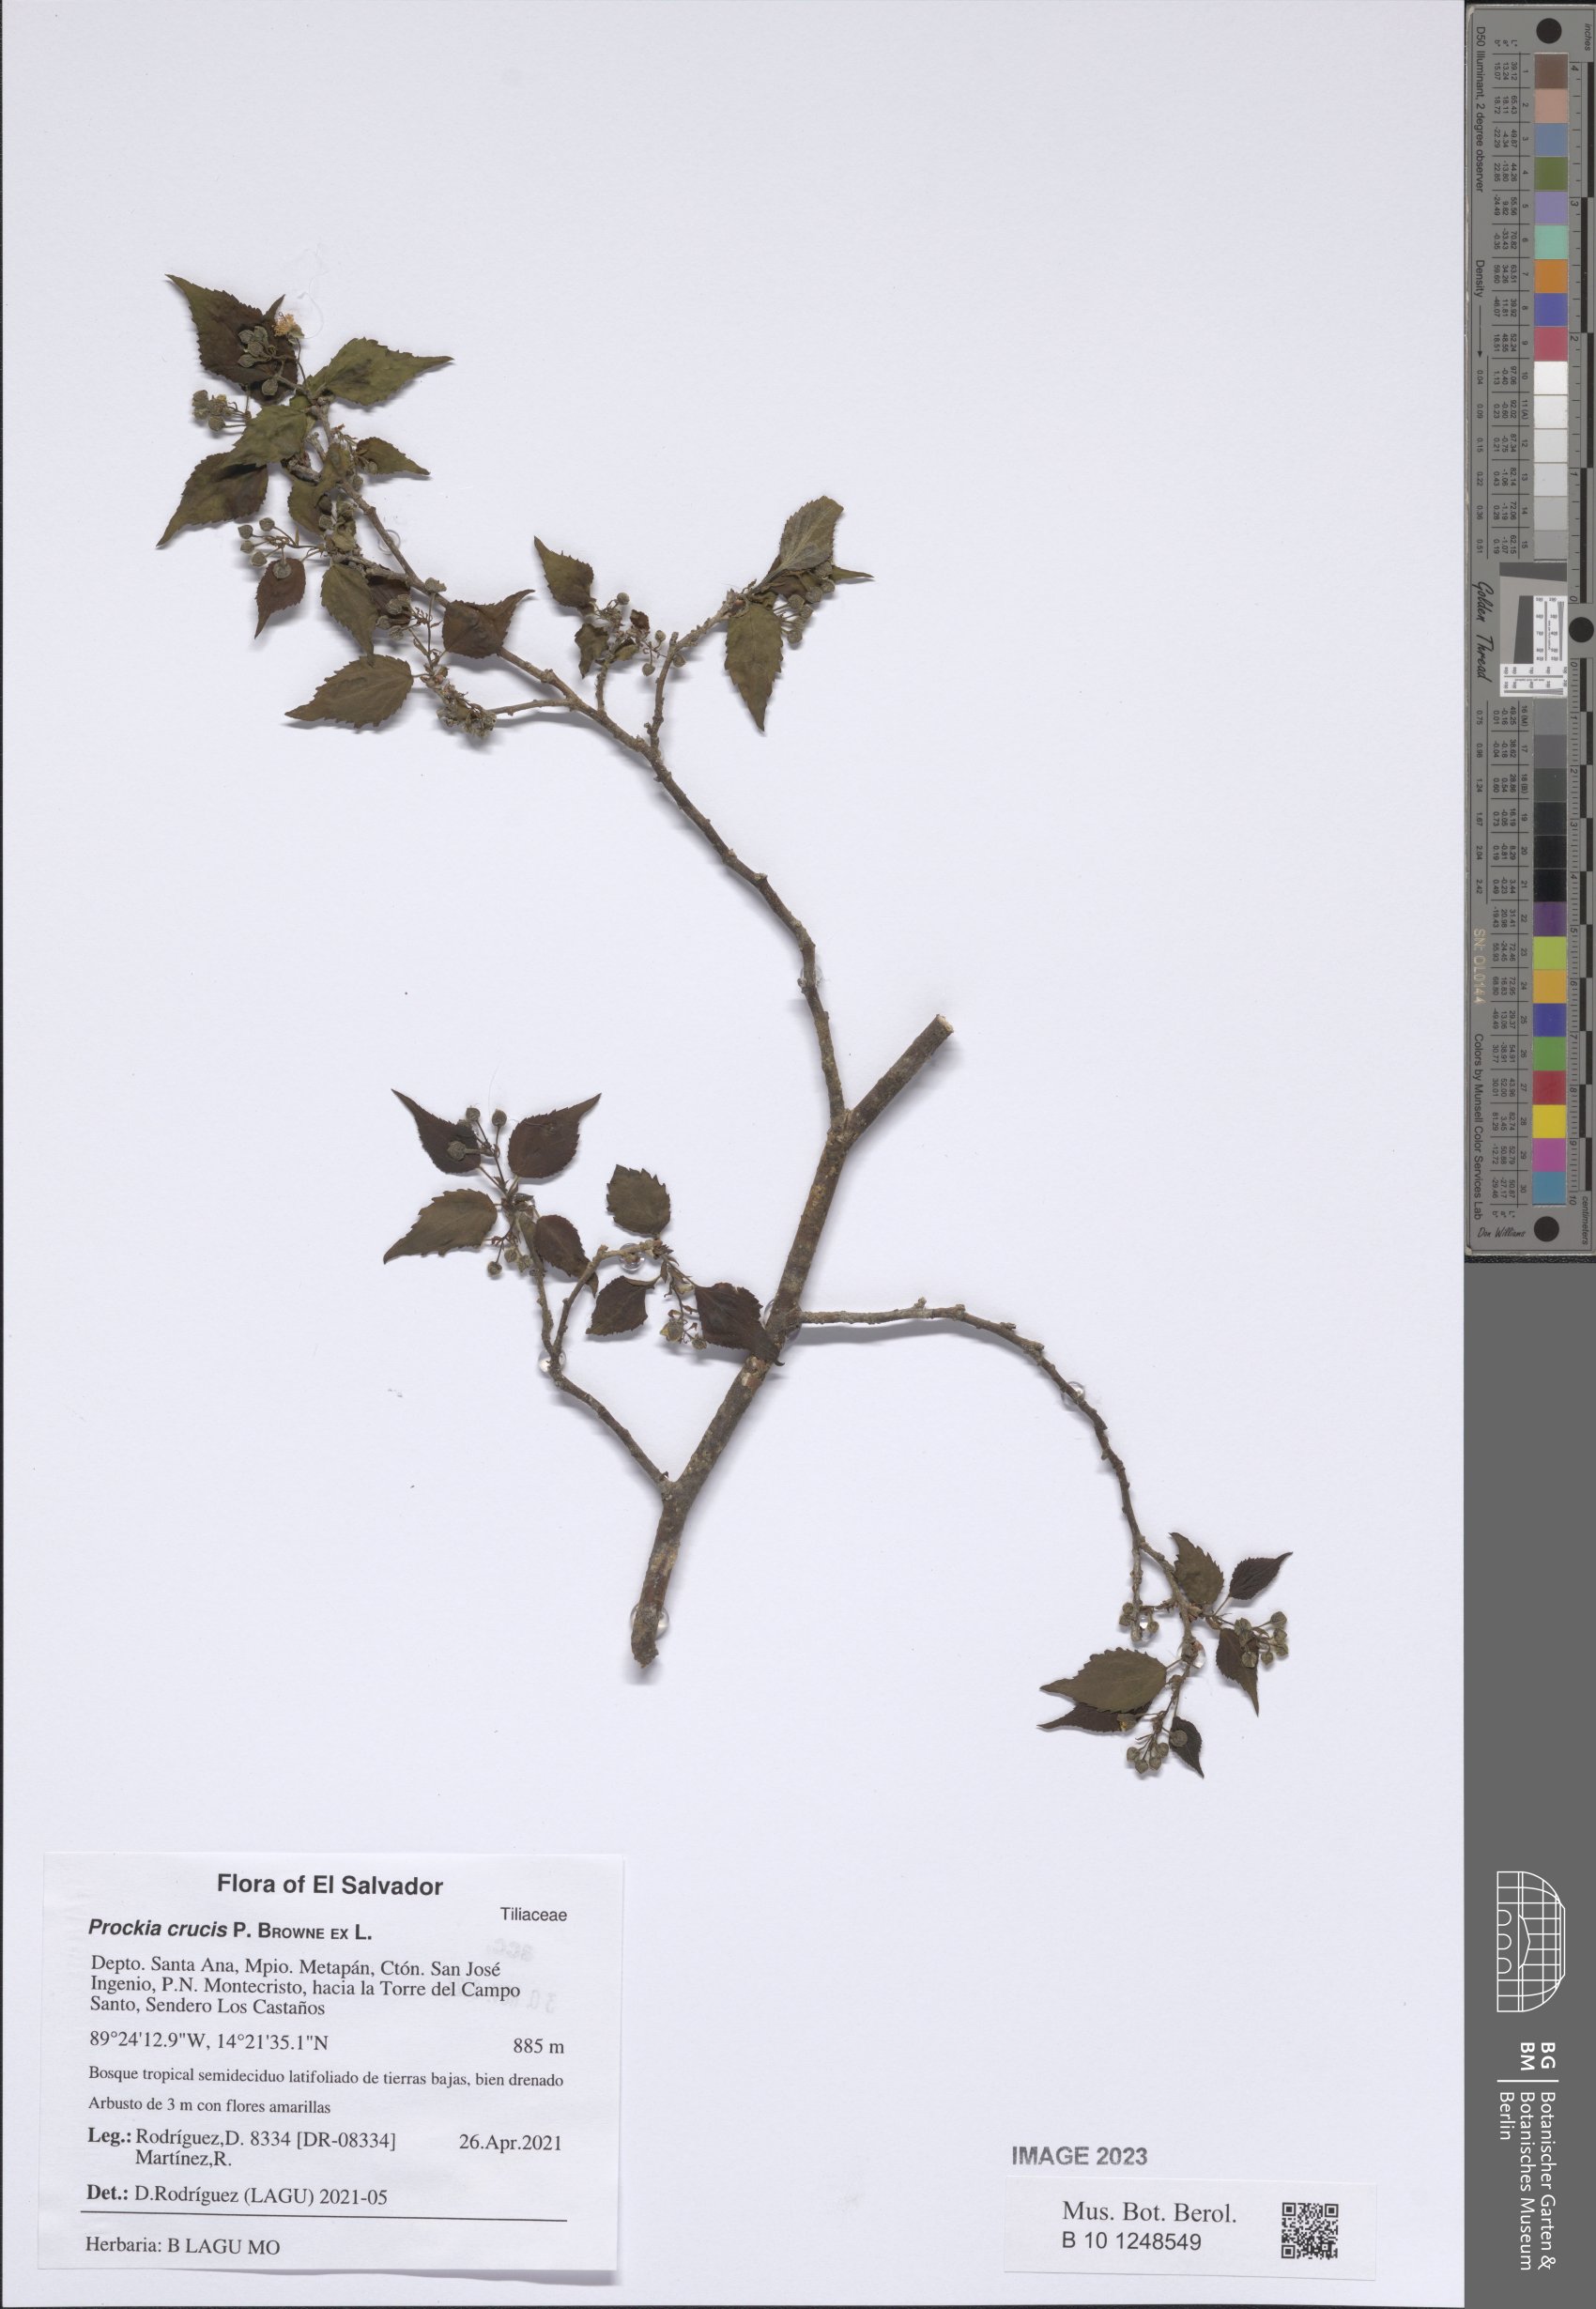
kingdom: Plantae
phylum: Tracheophyta
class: Magnoliopsida
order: Malpighiales
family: Salicaceae
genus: Prockia
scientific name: Prockia crucis
